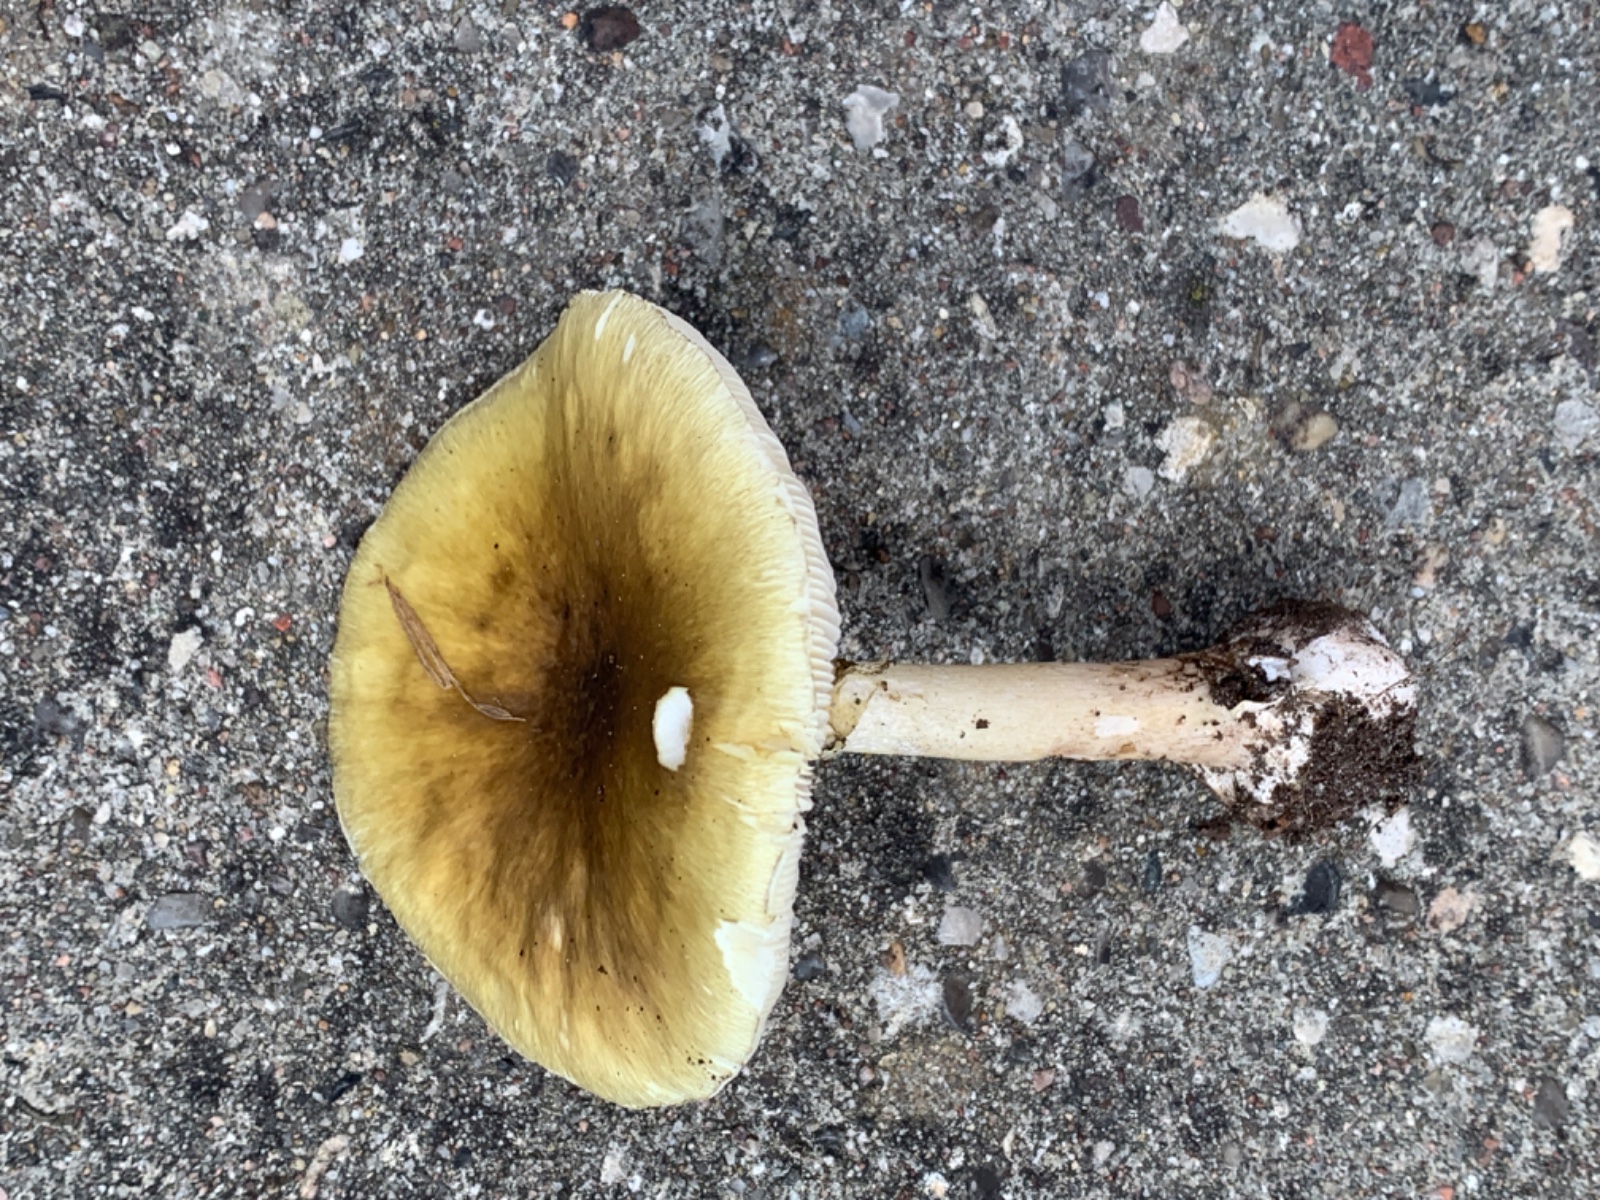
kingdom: Fungi
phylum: Basidiomycota
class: Agaricomycetes
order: Agaricales
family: Amanitaceae
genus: Amanita
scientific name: Amanita phalloides
